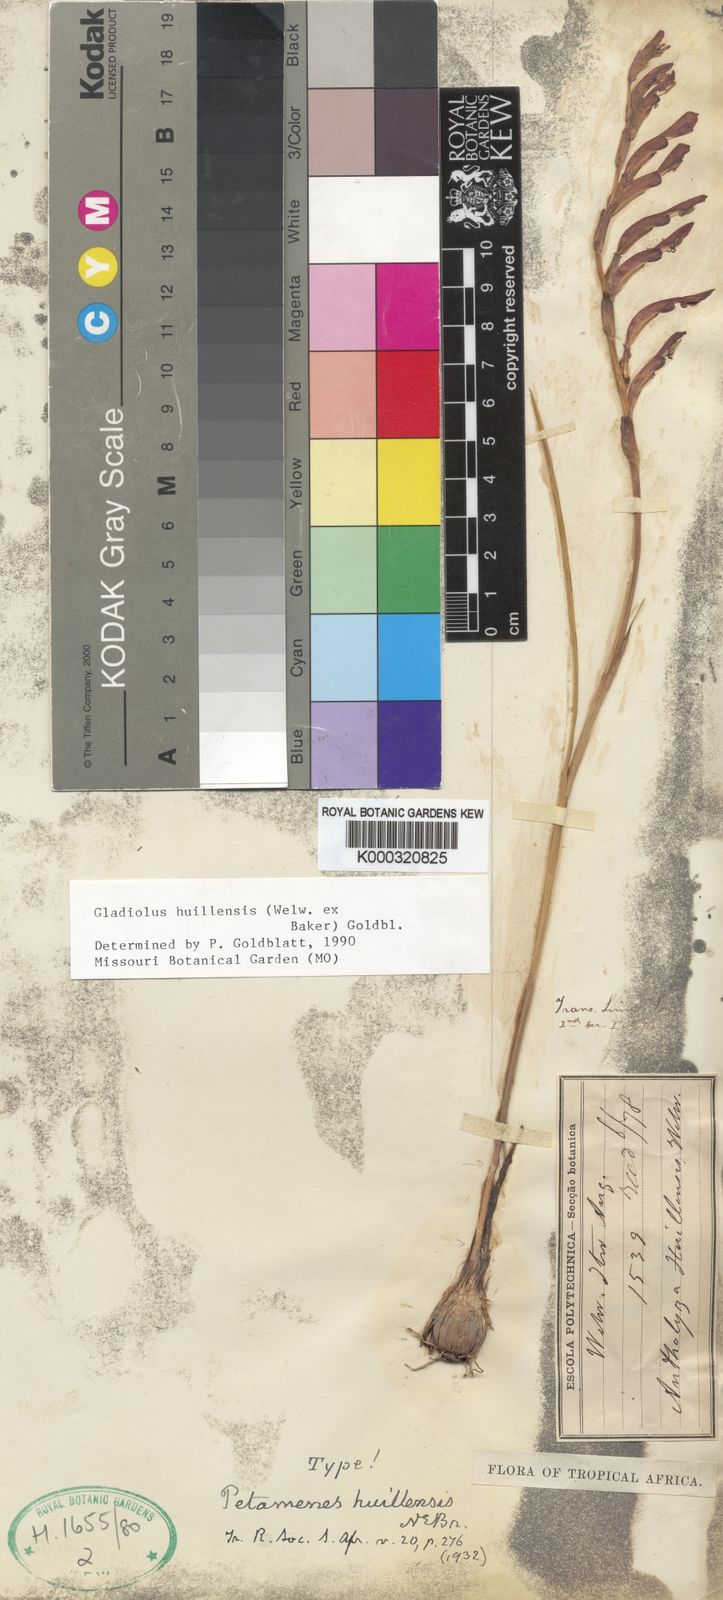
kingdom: Plantae
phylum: Tracheophyta
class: Liliopsida
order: Asparagales
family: Iridaceae
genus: Gladiolus
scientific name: Gladiolus huillensis
